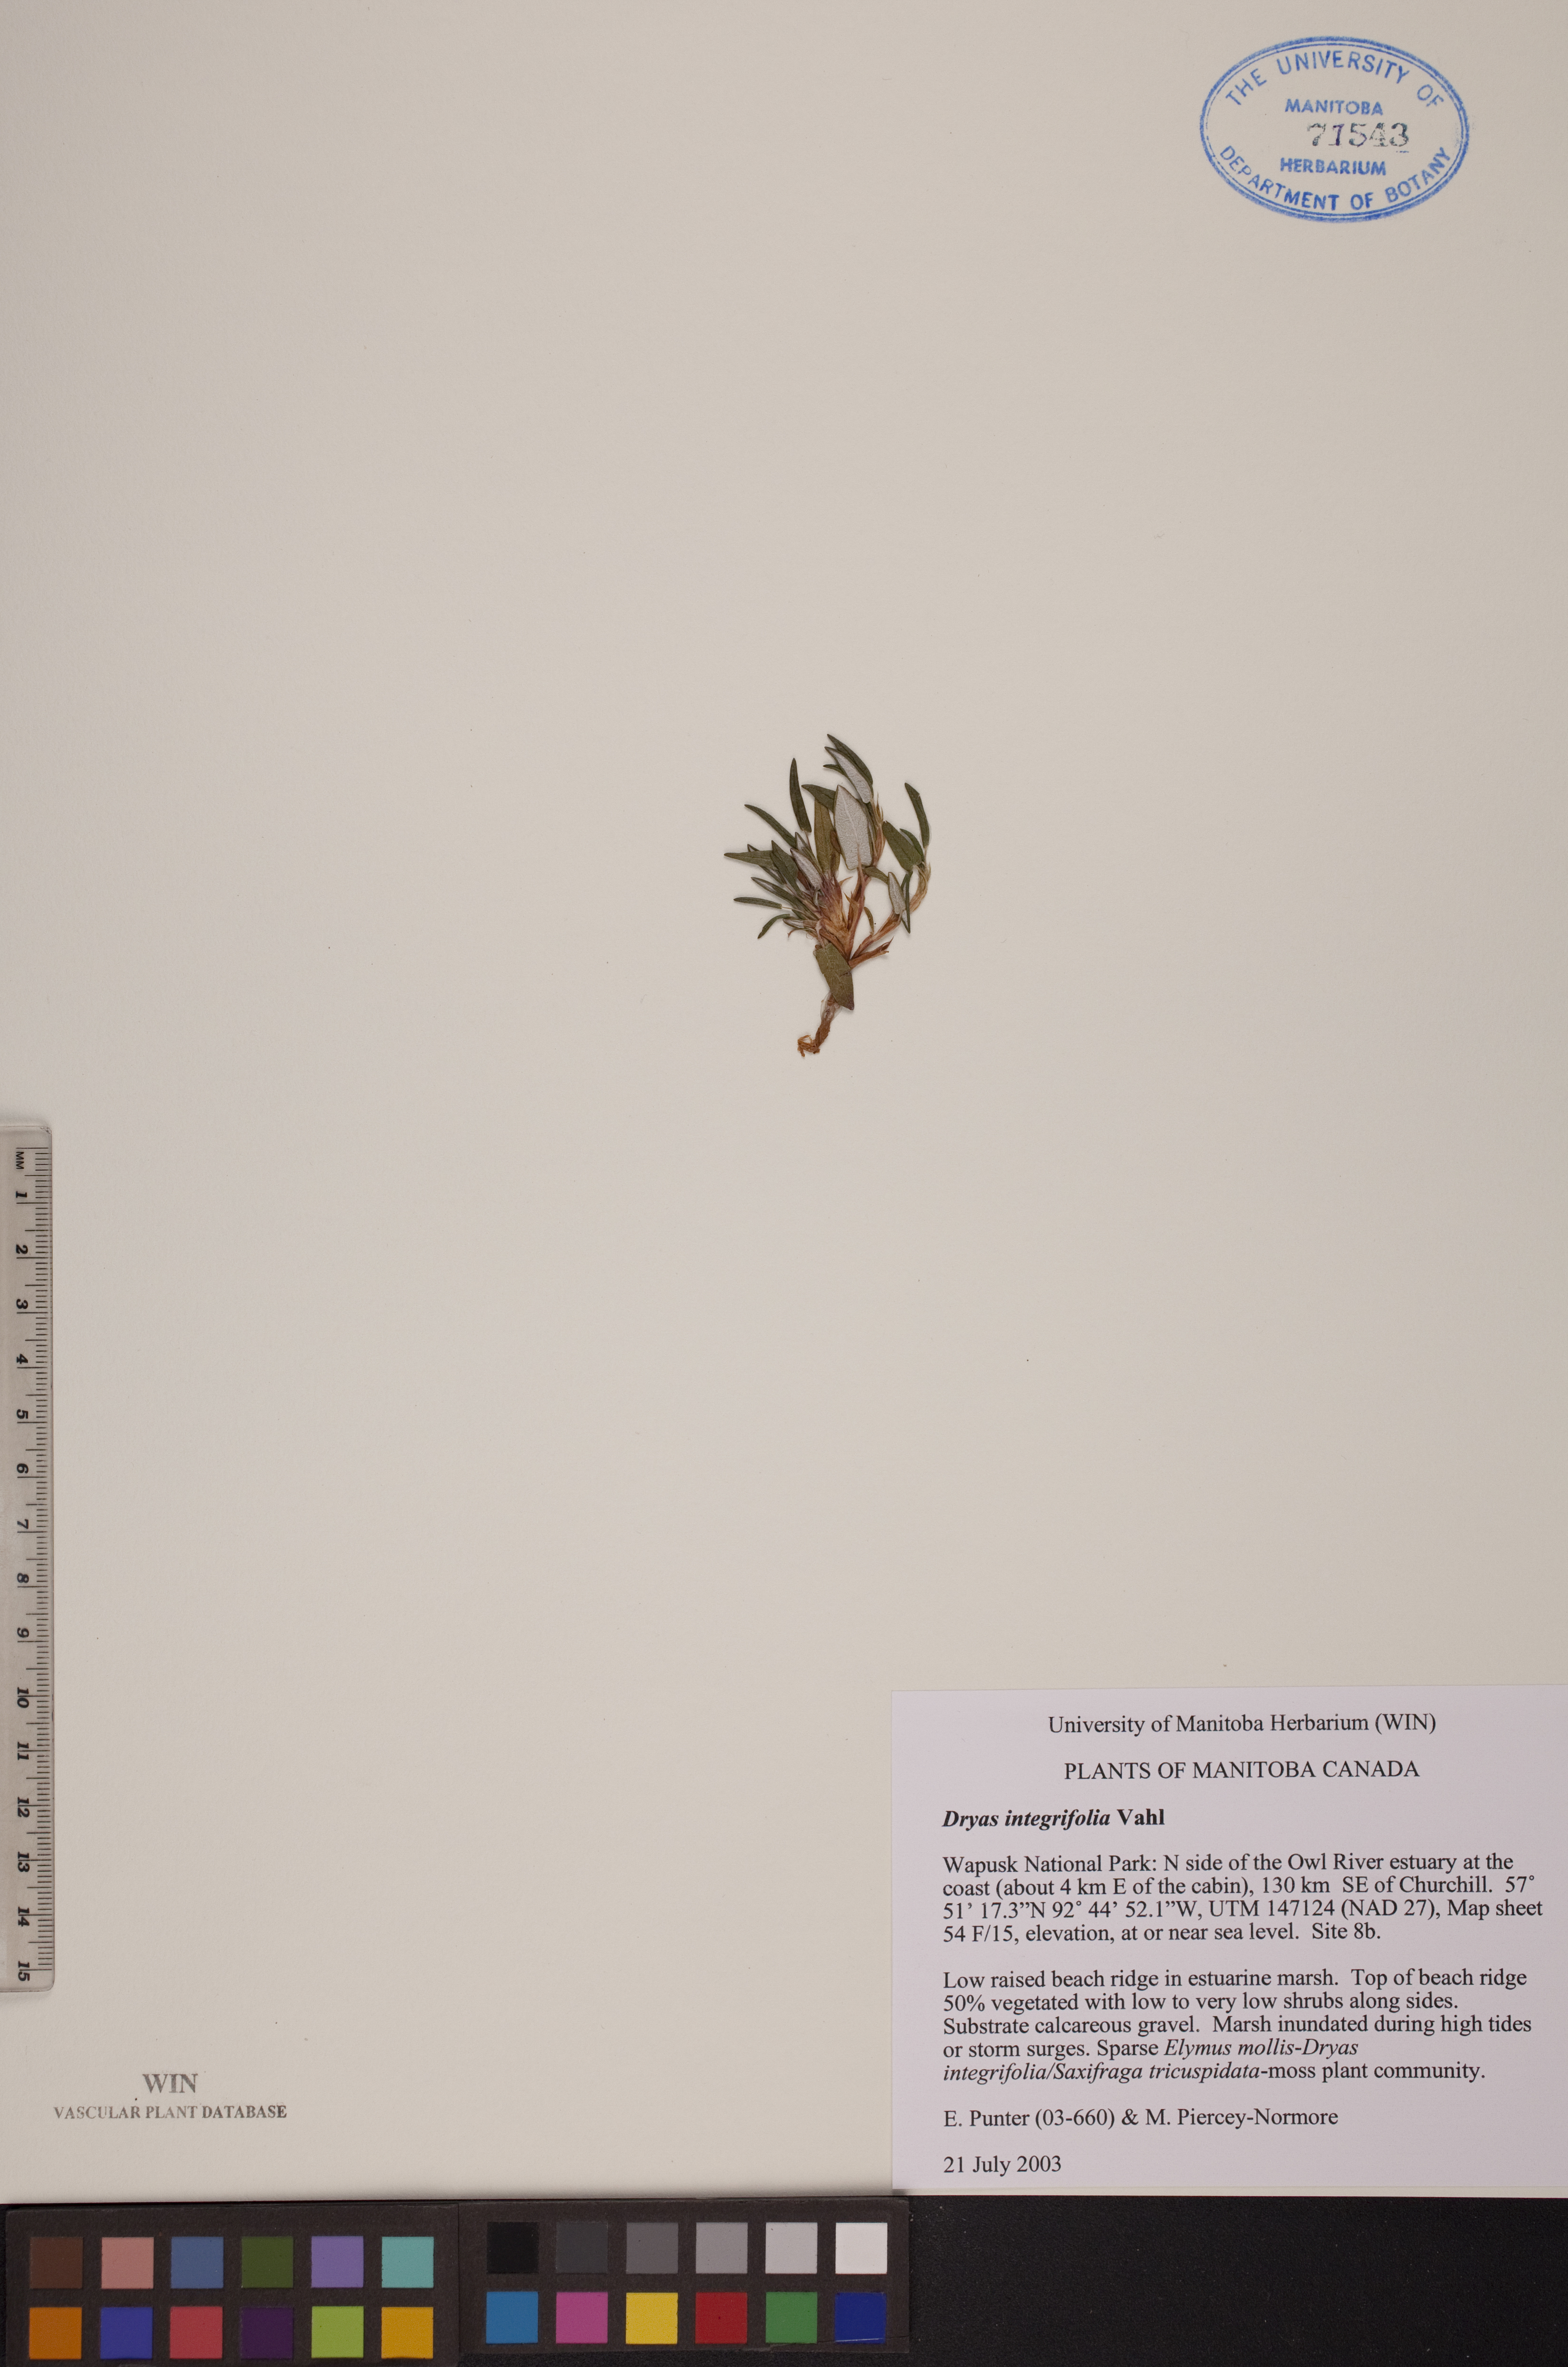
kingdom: Plantae
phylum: Tracheophyta
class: Magnoliopsida
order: Rosales
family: Rosaceae
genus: Dryas
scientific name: Dryas integrifolia
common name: Entire-leaved mountain avens
